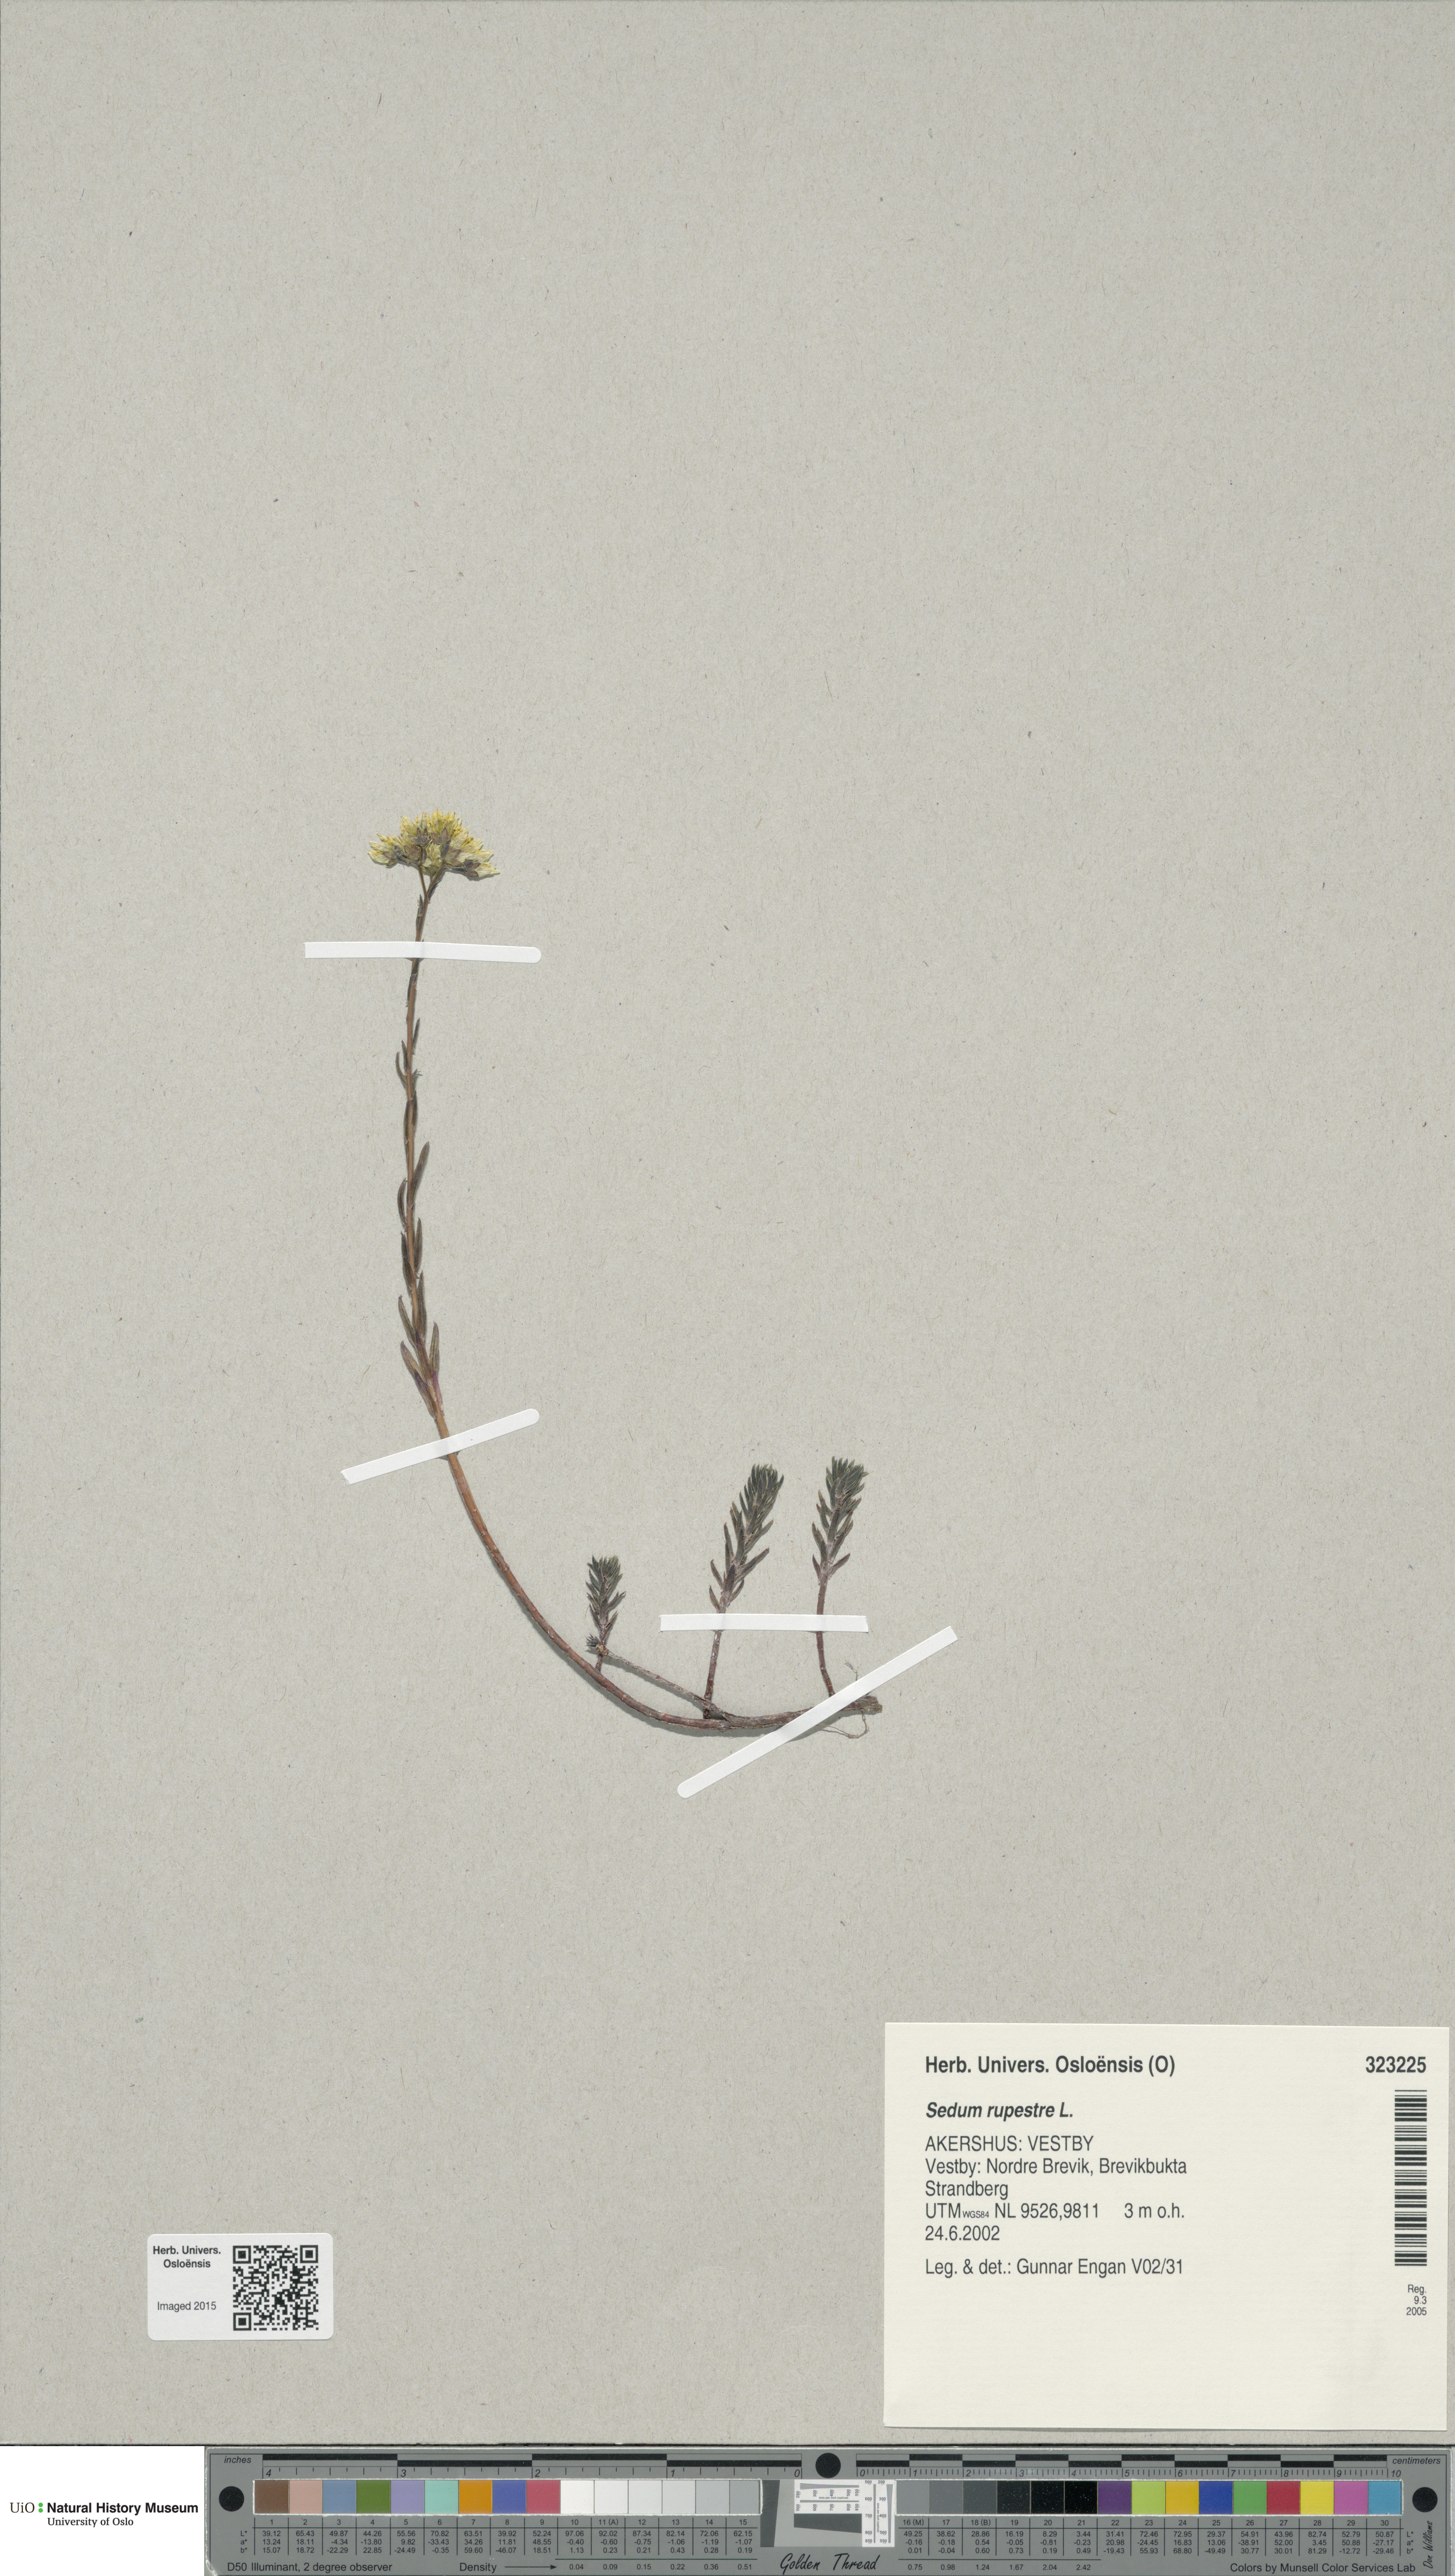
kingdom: Plantae
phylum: Tracheophyta
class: Magnoliopsida
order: Saxifragales
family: Crassulaceae
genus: Petrosedum
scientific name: Petrosedum rupestre
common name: Jenny's stonecrop
